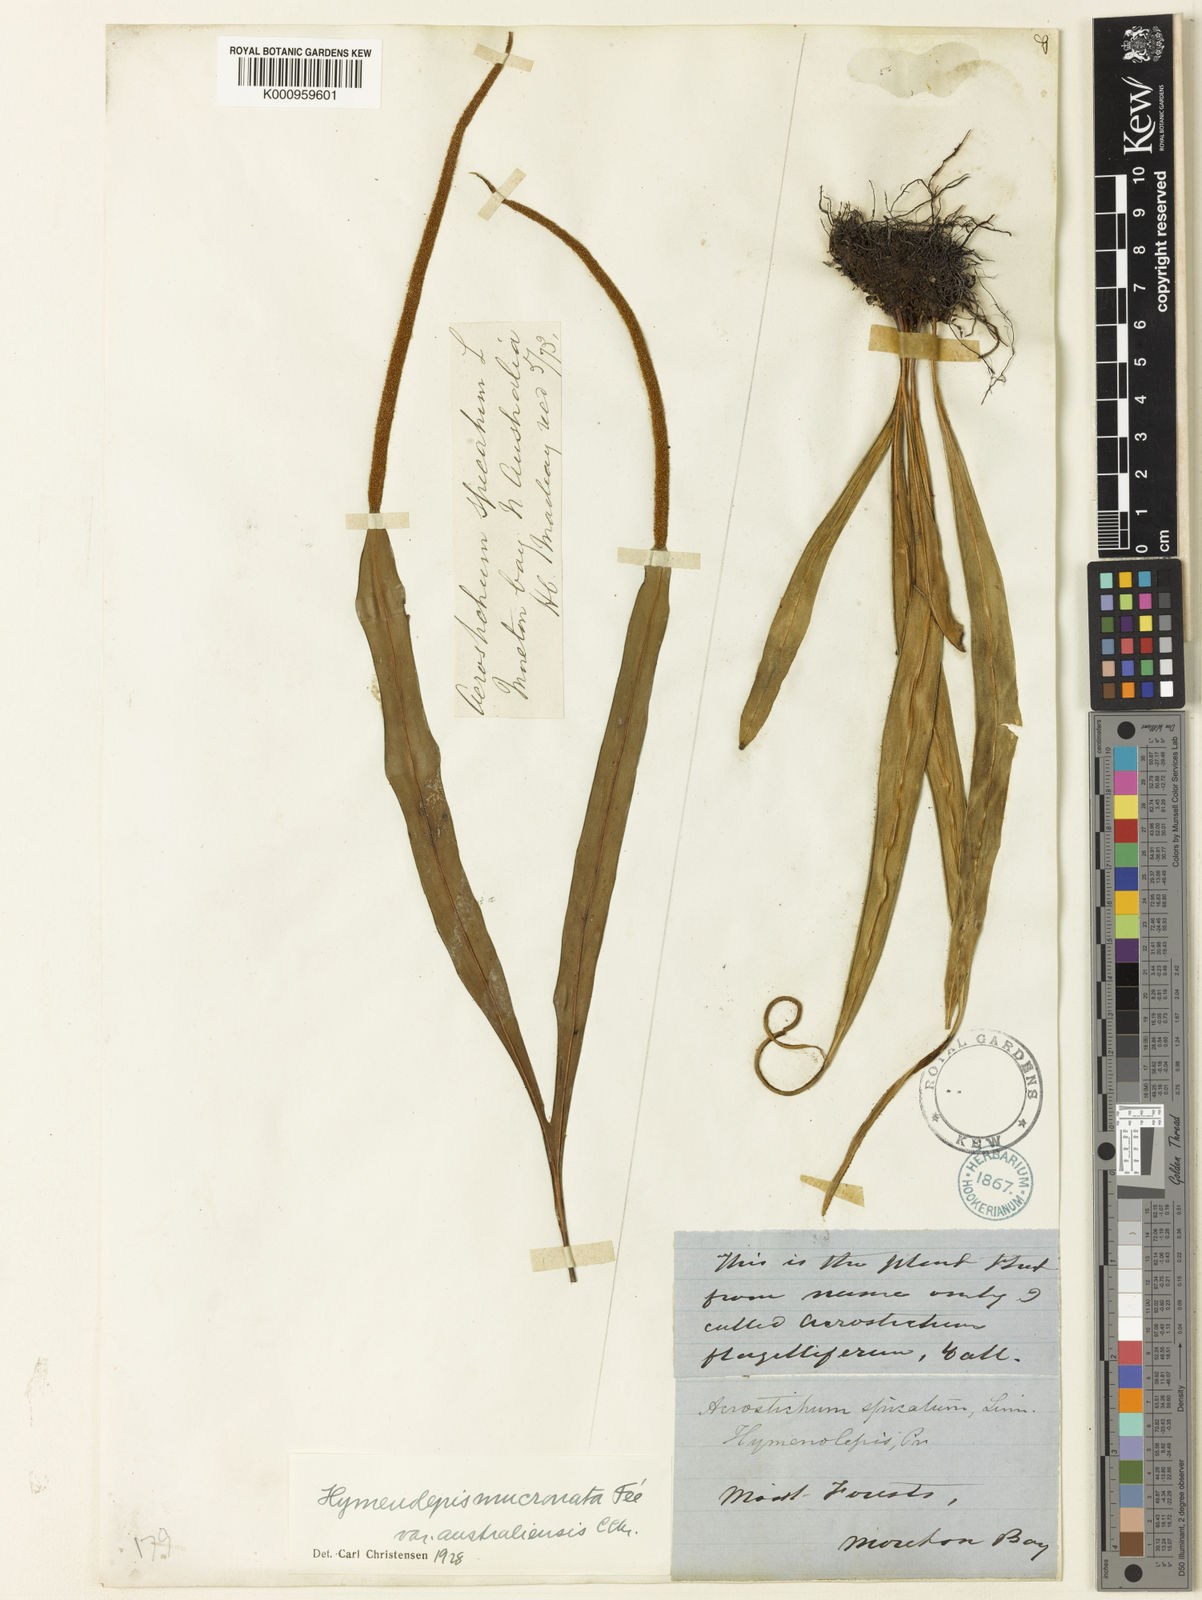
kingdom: Plantae
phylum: Tracheophyta
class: Polypodiopsida
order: Polypodiales
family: Polypodiaceae
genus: Lepisorus
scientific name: Lepisorus mucronatus
